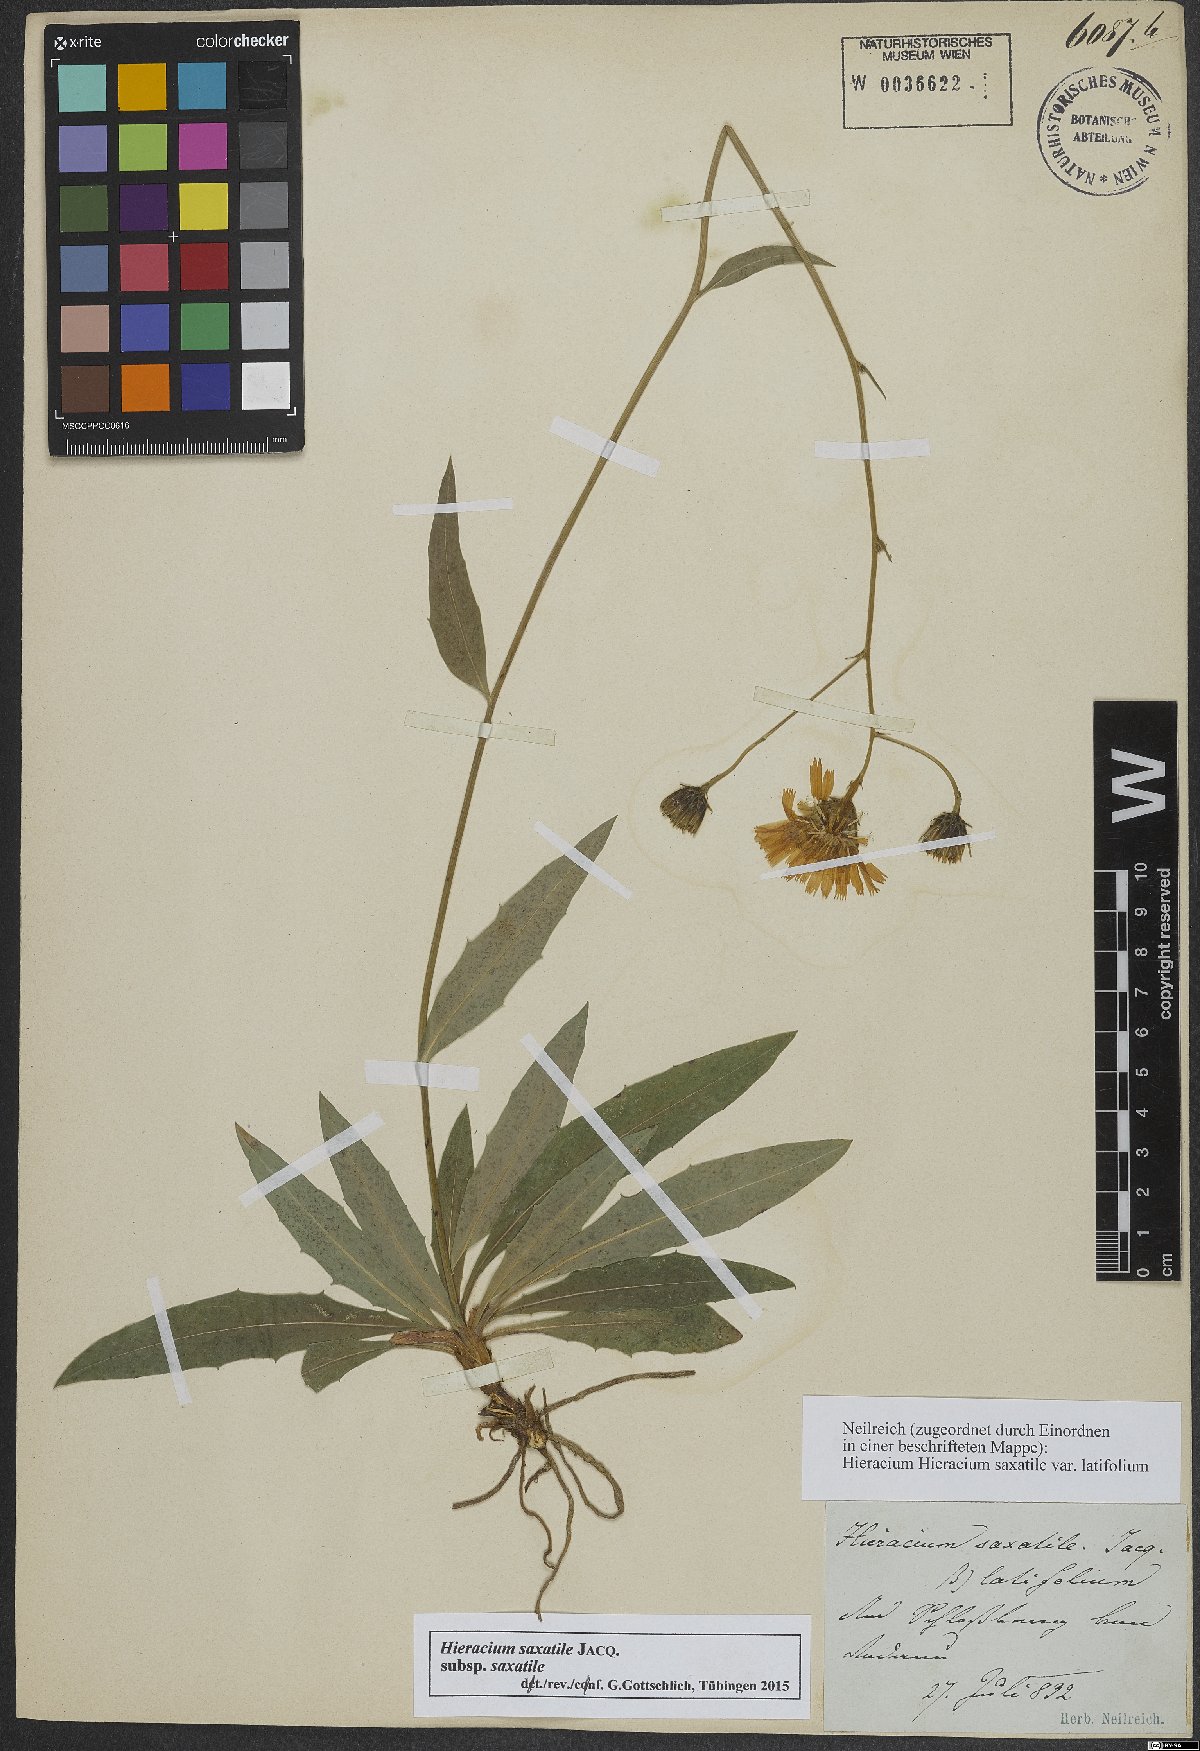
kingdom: Plantae
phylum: Tracheophyta
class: Magnoliopsida
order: Asterales
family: Asteraceae
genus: Hieracium
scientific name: Hieracium saxatile
